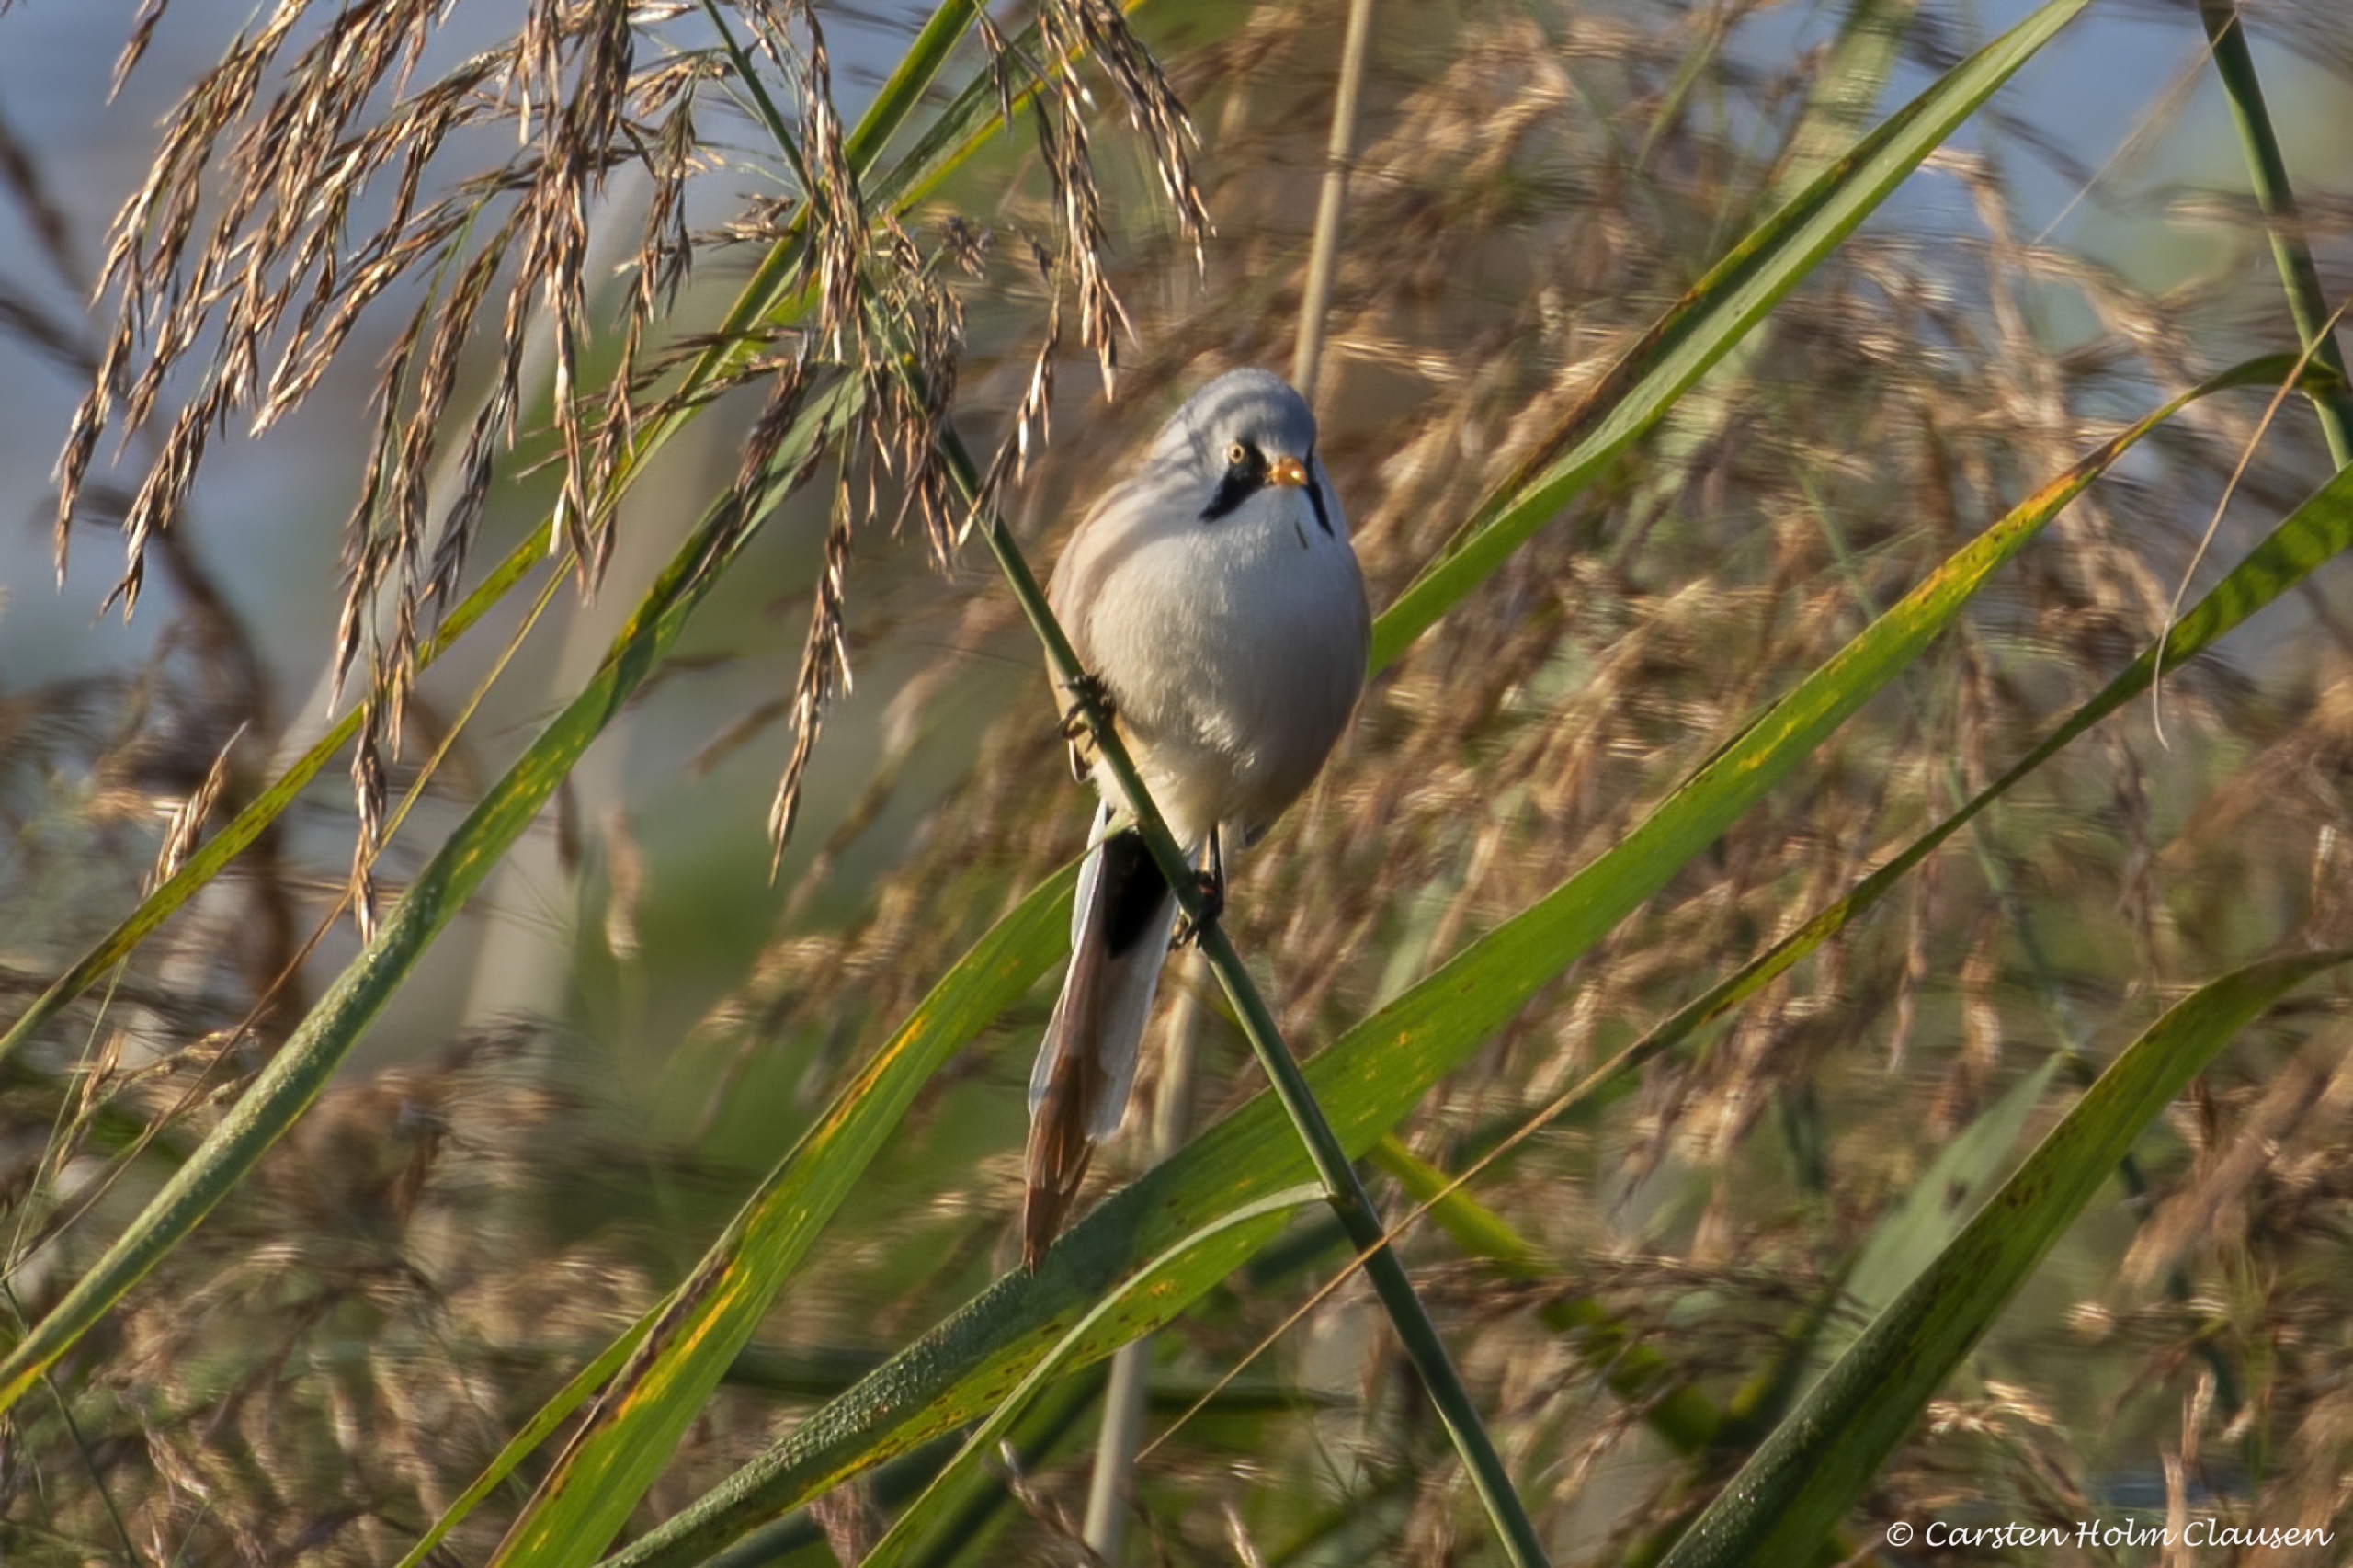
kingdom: Animalia
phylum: Chordata
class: Aves
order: Passeriformes
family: Panuridae
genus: Panurus
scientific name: Panurus biarmicus
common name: Skægmejse
